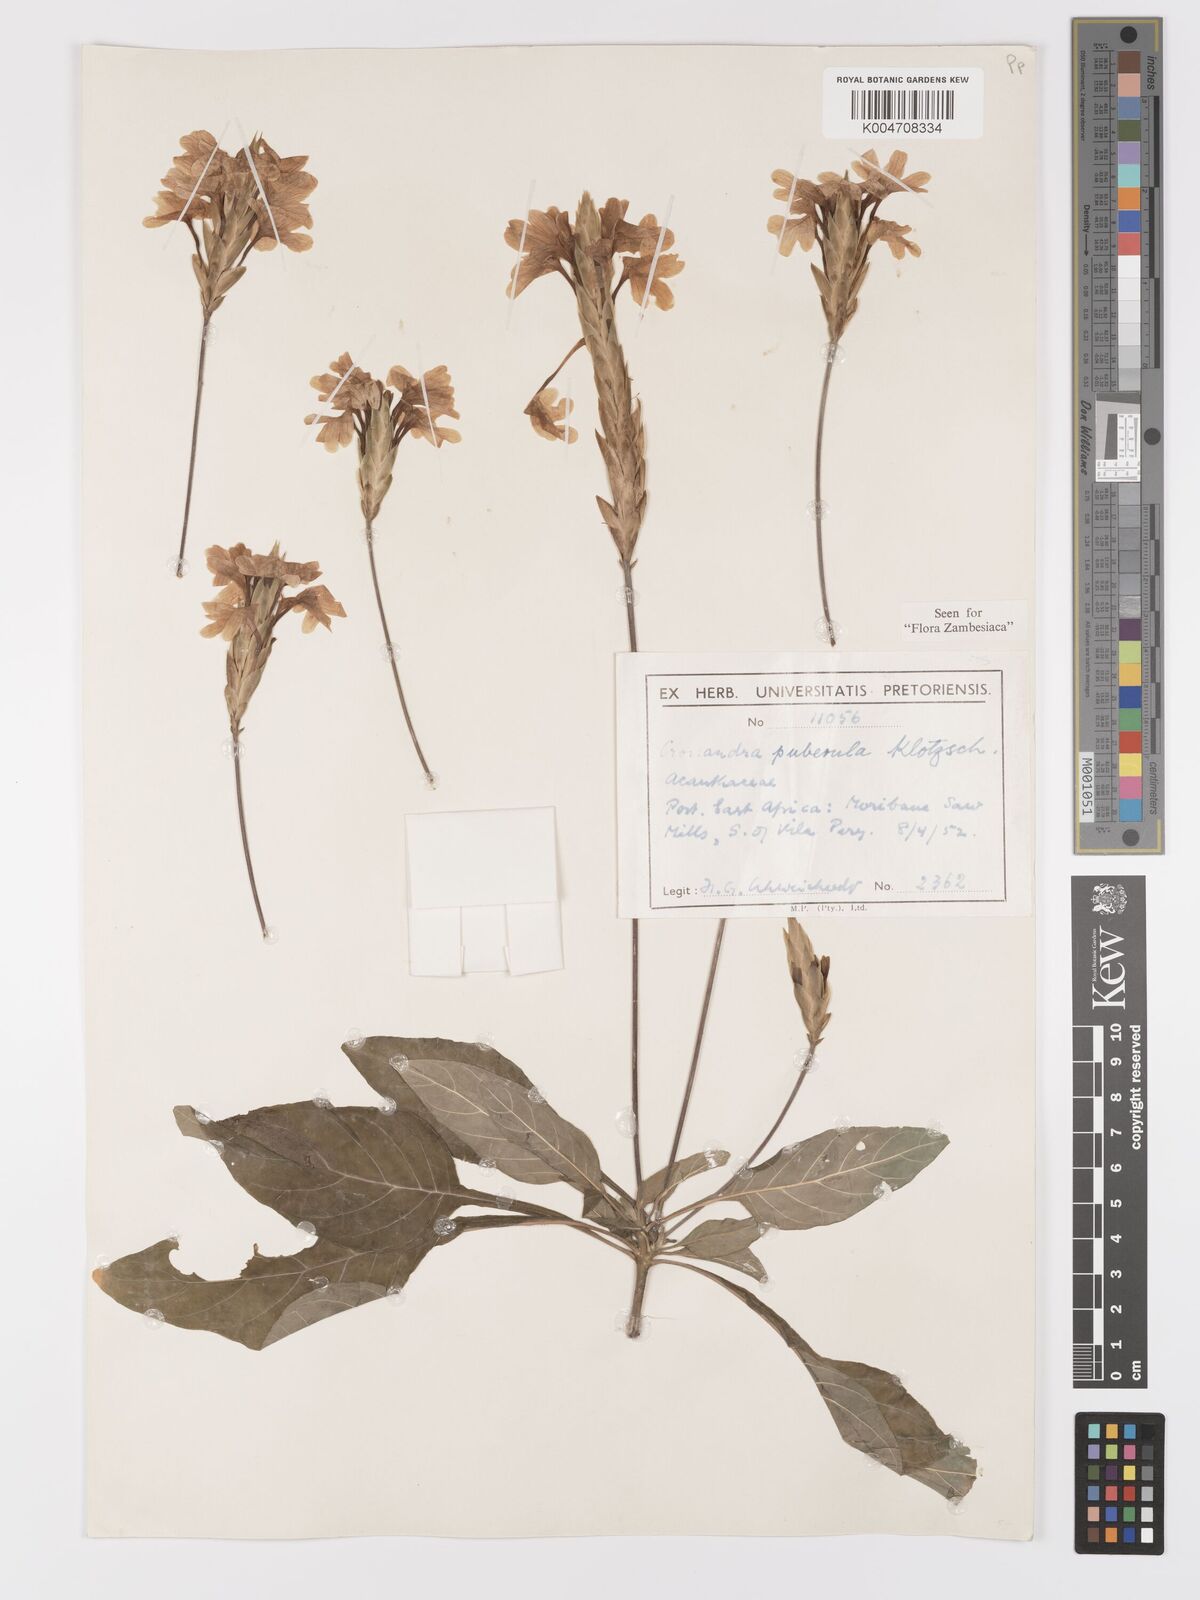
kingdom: Plantae
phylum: Tracheophyta
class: Magnoliopsida
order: Lamiales
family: Acanthaceae
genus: Crossandra
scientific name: Crossandra puberula
